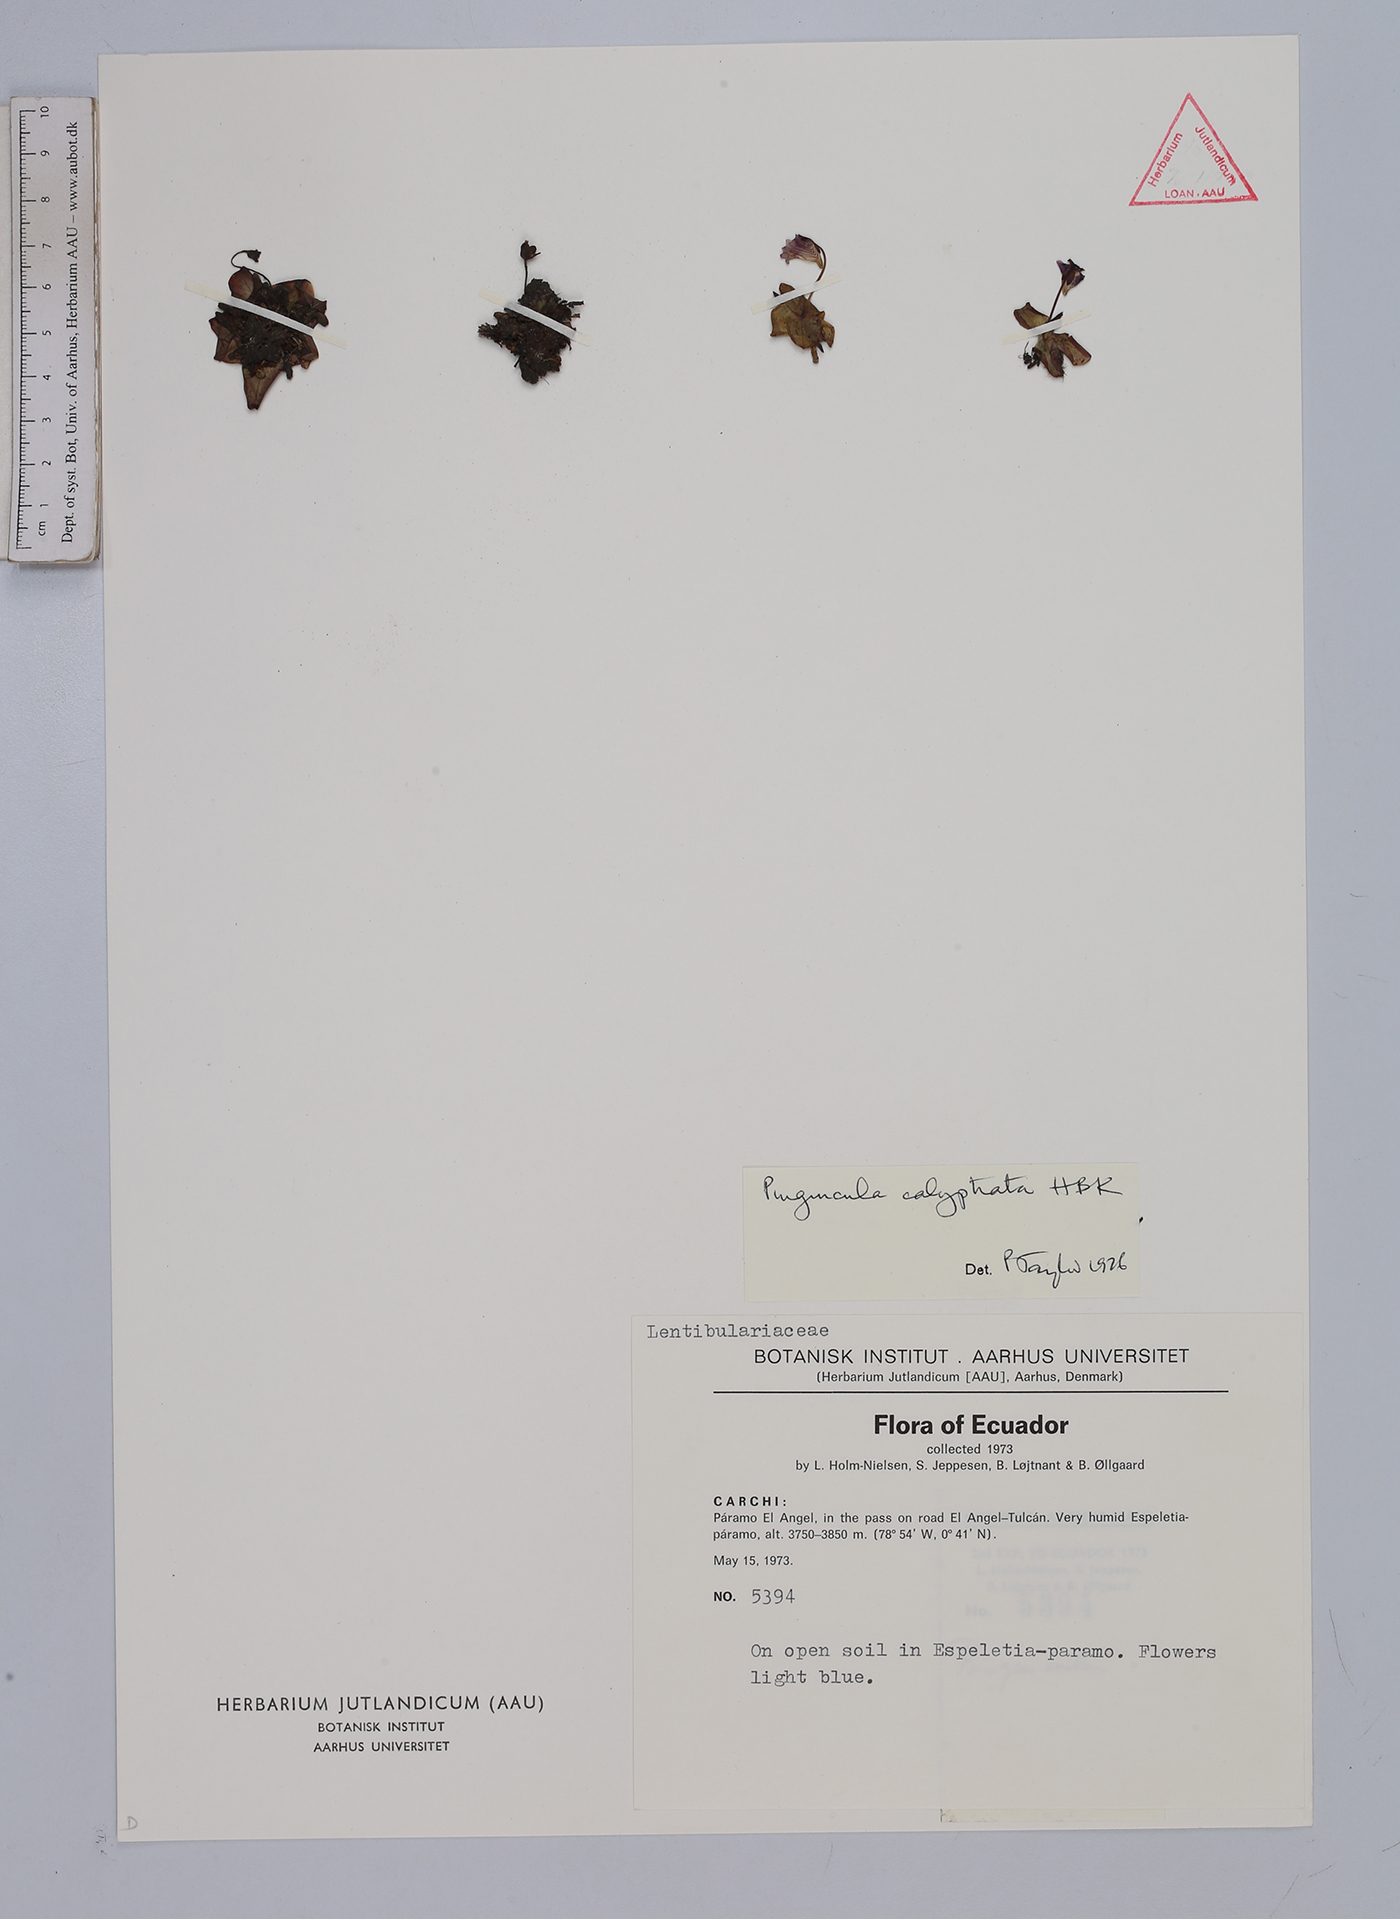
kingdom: Plantae
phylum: Tracheophyta
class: Magnoliopsida
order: Lamiales
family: Lentibulariaceae
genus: Pinguicula
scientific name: Pinguicula calyptrata
